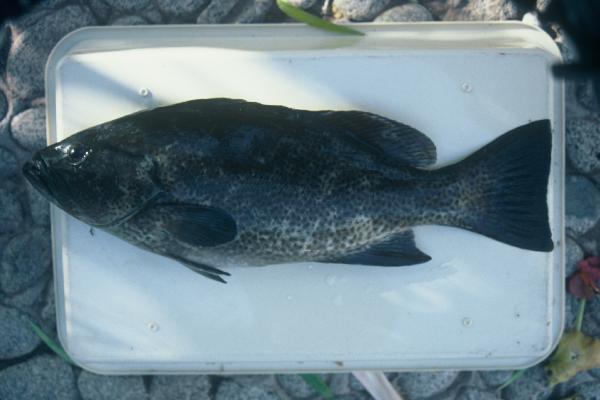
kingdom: Animalia
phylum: Chordata
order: Perciformes
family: Serranidae
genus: Mycteroperca
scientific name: Mycteroperca rosacea
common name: Leopard grouper
